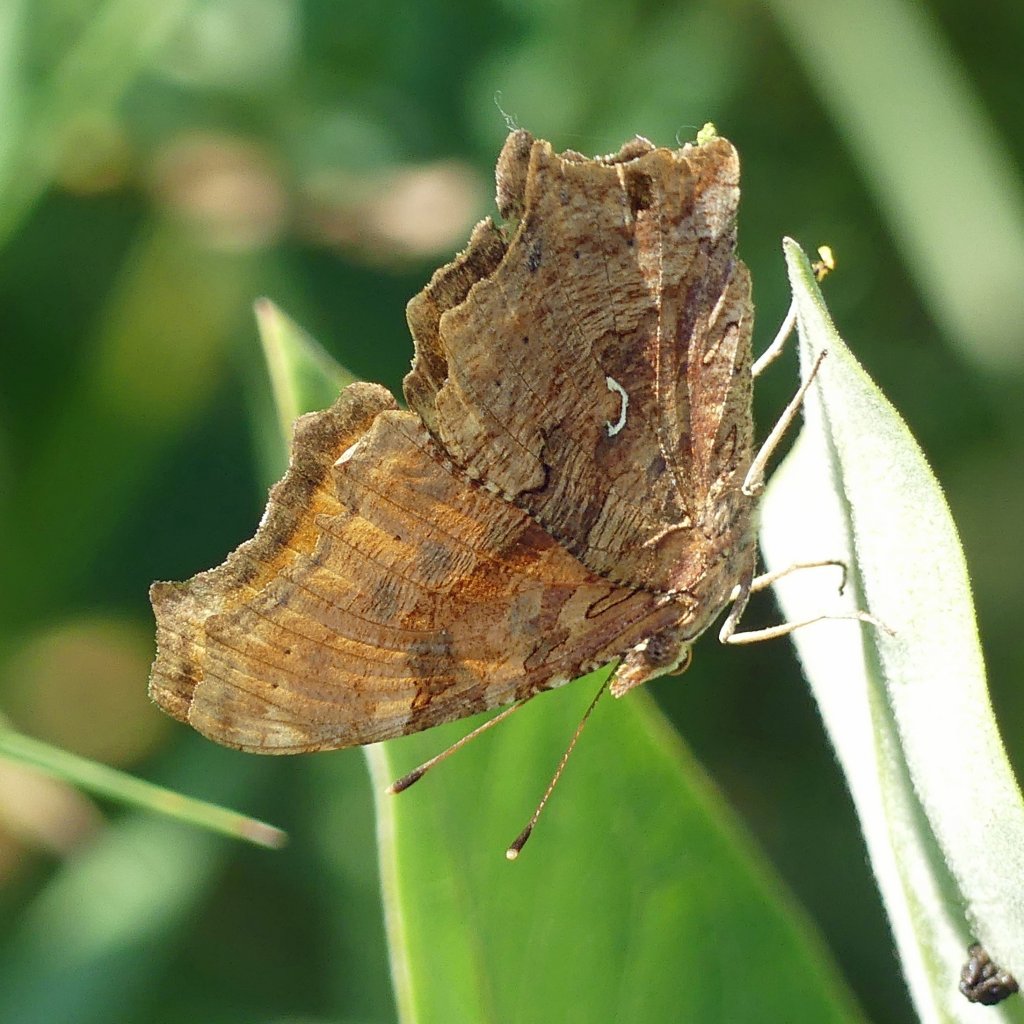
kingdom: Animalia
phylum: Arthropoda
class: Insecta
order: Lepidoptera
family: Nymphalidae
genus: Polygonia
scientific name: Polygonia comma
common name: Eastern Comma
